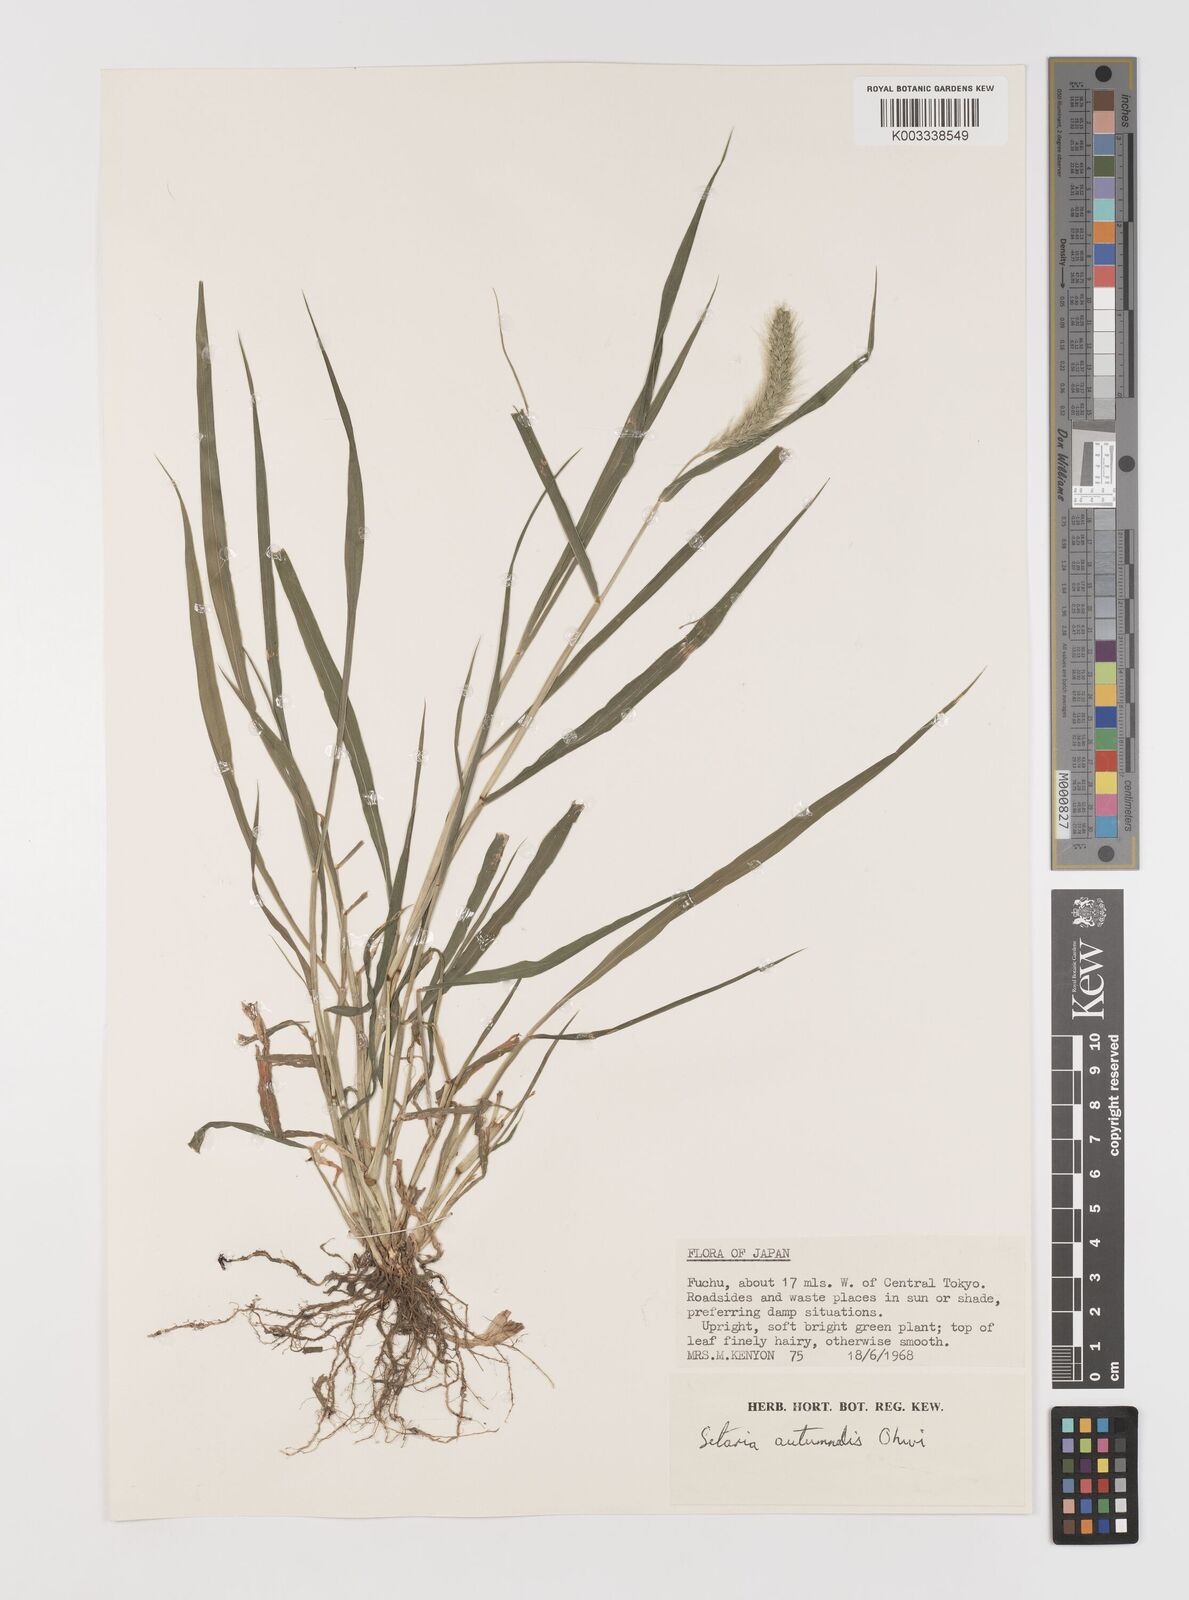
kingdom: Plantae
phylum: Tracheophyta
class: Liliopsida
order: Poales
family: Poaceae
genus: Setaria
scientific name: Setaria faberi
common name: Nodding bristle-grass
